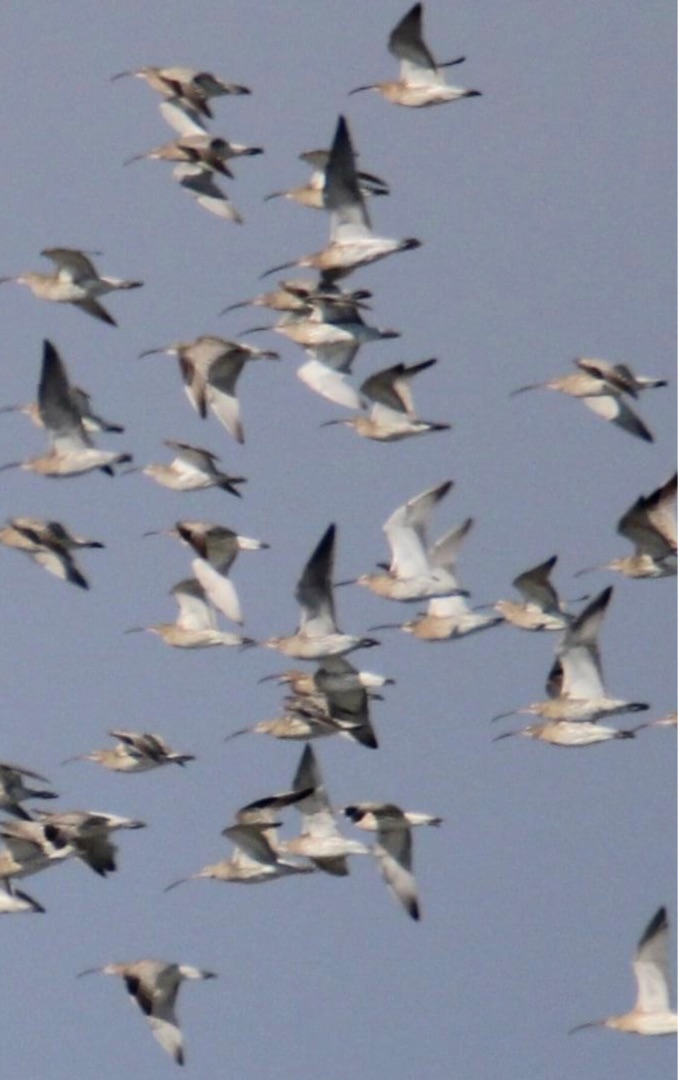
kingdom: Animalia
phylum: Chordata
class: Aves
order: Charadriiformes
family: Scolopacidae
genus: Numenius
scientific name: Numenius arquata
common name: Storspove
